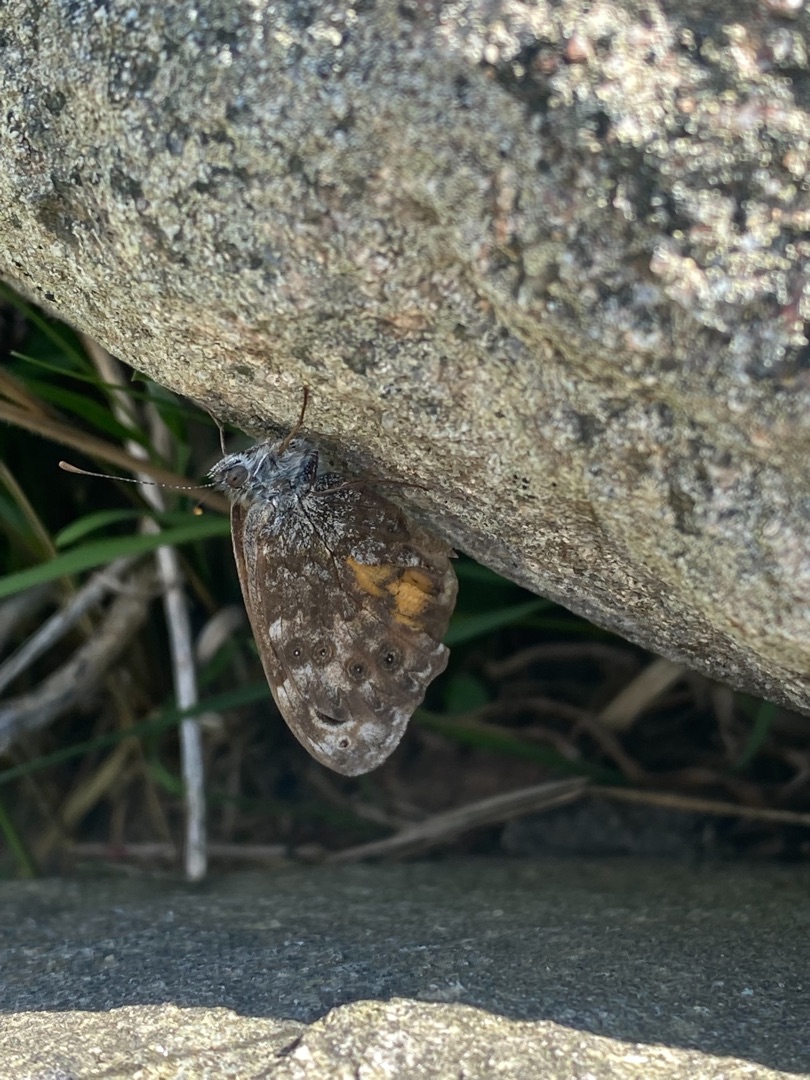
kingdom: Animalia
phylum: Arthropoda
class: Insecta
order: Lepidoptera
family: Nymphalidae
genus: Pararge
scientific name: Pararge Lasiommata megera
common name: Vejrandøje
